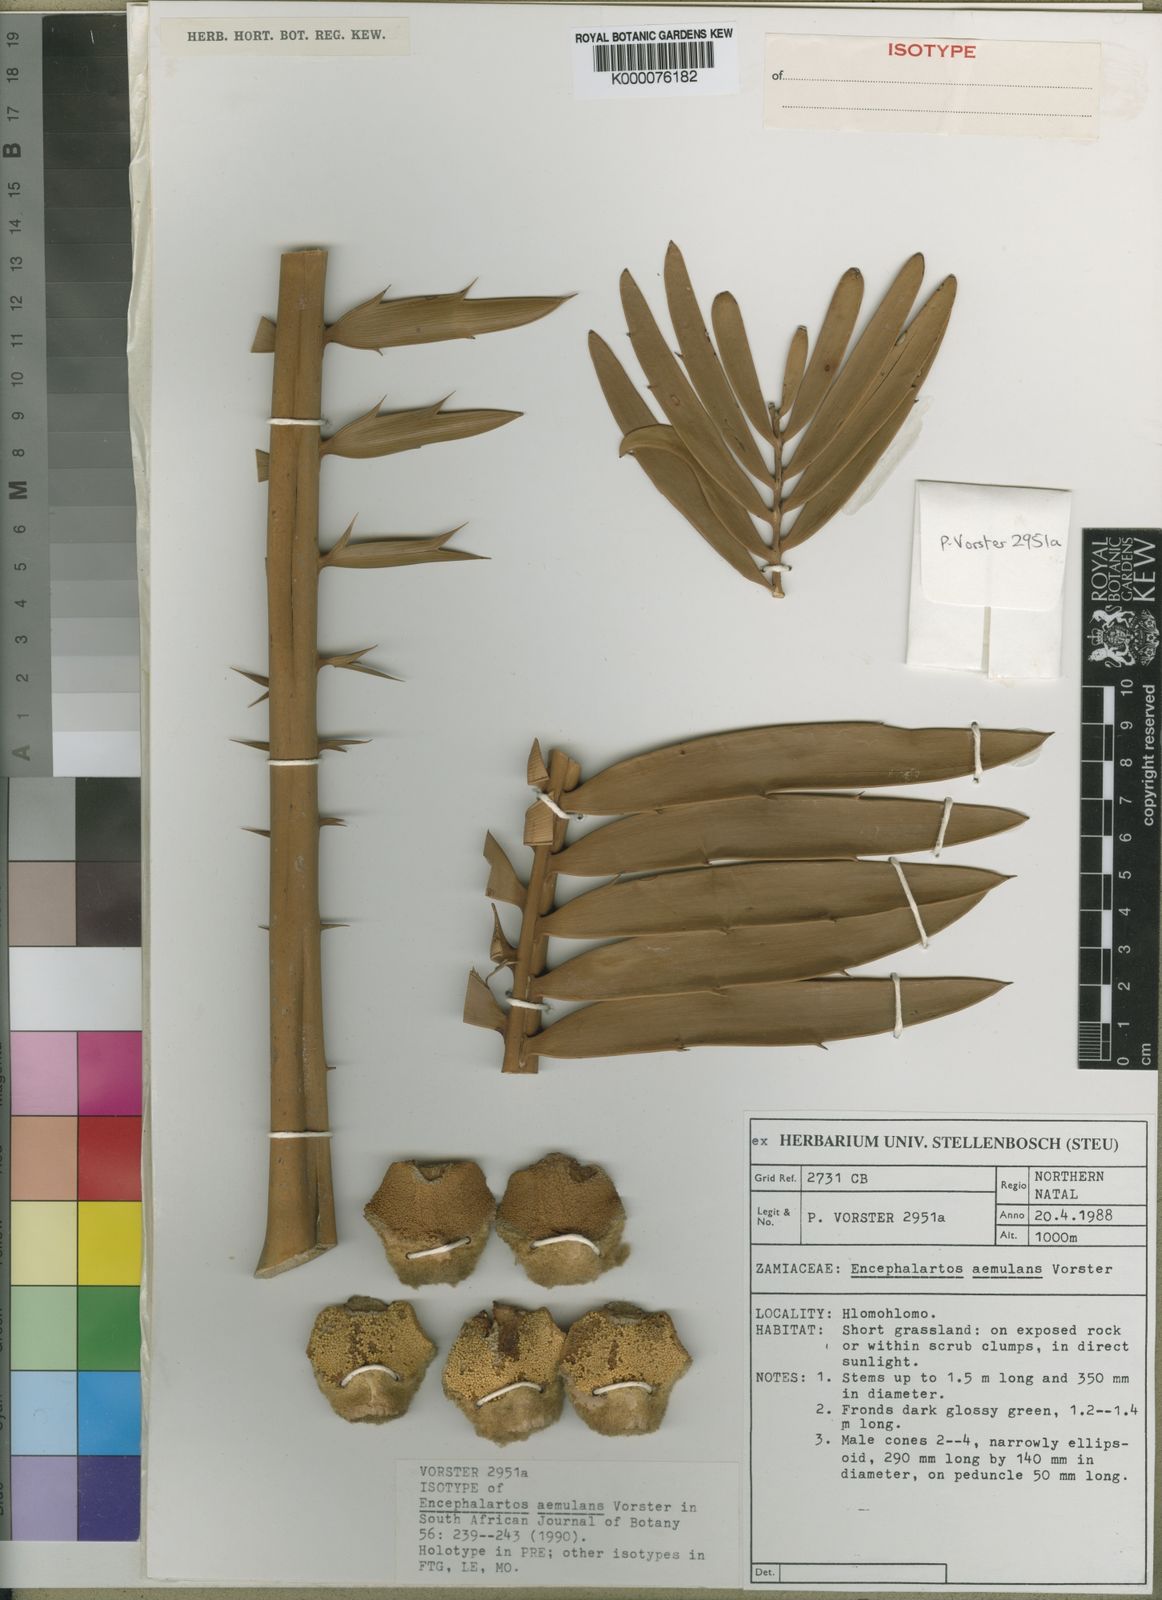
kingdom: Plantae
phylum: Tracheophyta
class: Cycadopsida
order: Cycadales
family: Zamiaceae
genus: Encephalartos
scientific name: Encephalartos aemulans
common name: Ngotshe cycad
